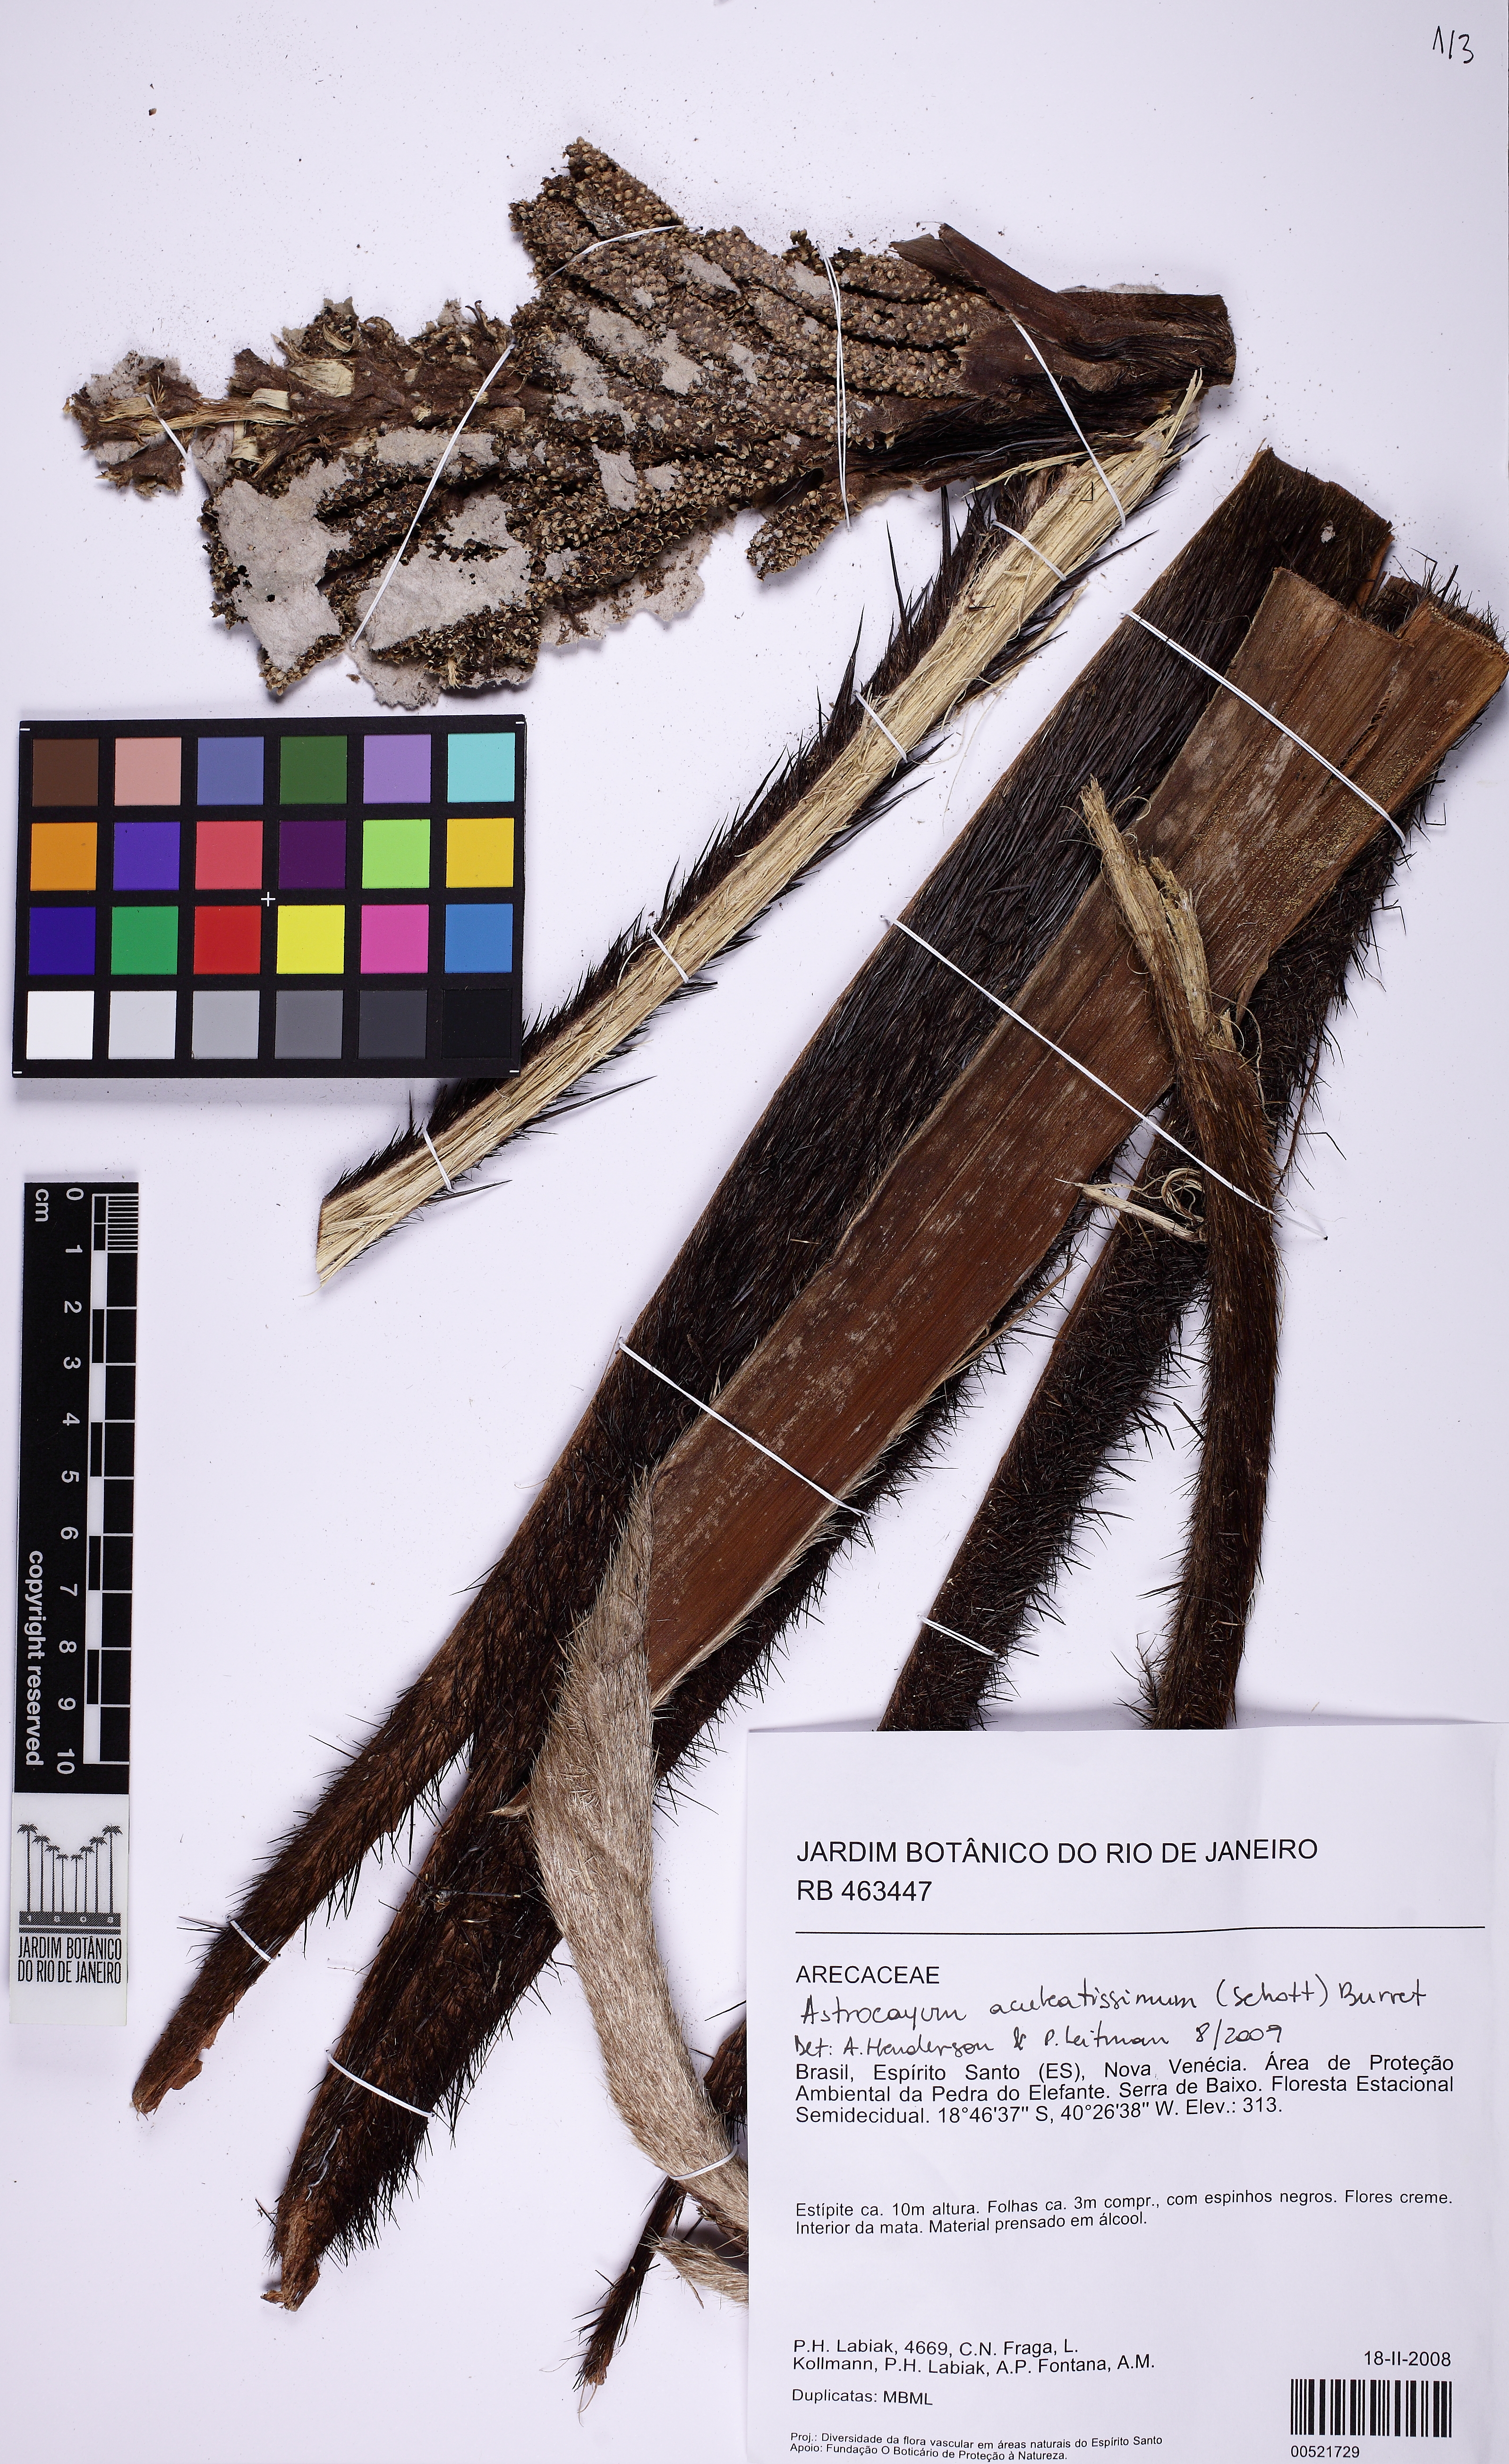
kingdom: Plantae
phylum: Tracheophyta
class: Liliopsida
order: Arecales
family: Arecaceae
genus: Astrocaryum
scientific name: Astrocaryum aculeatissimum
